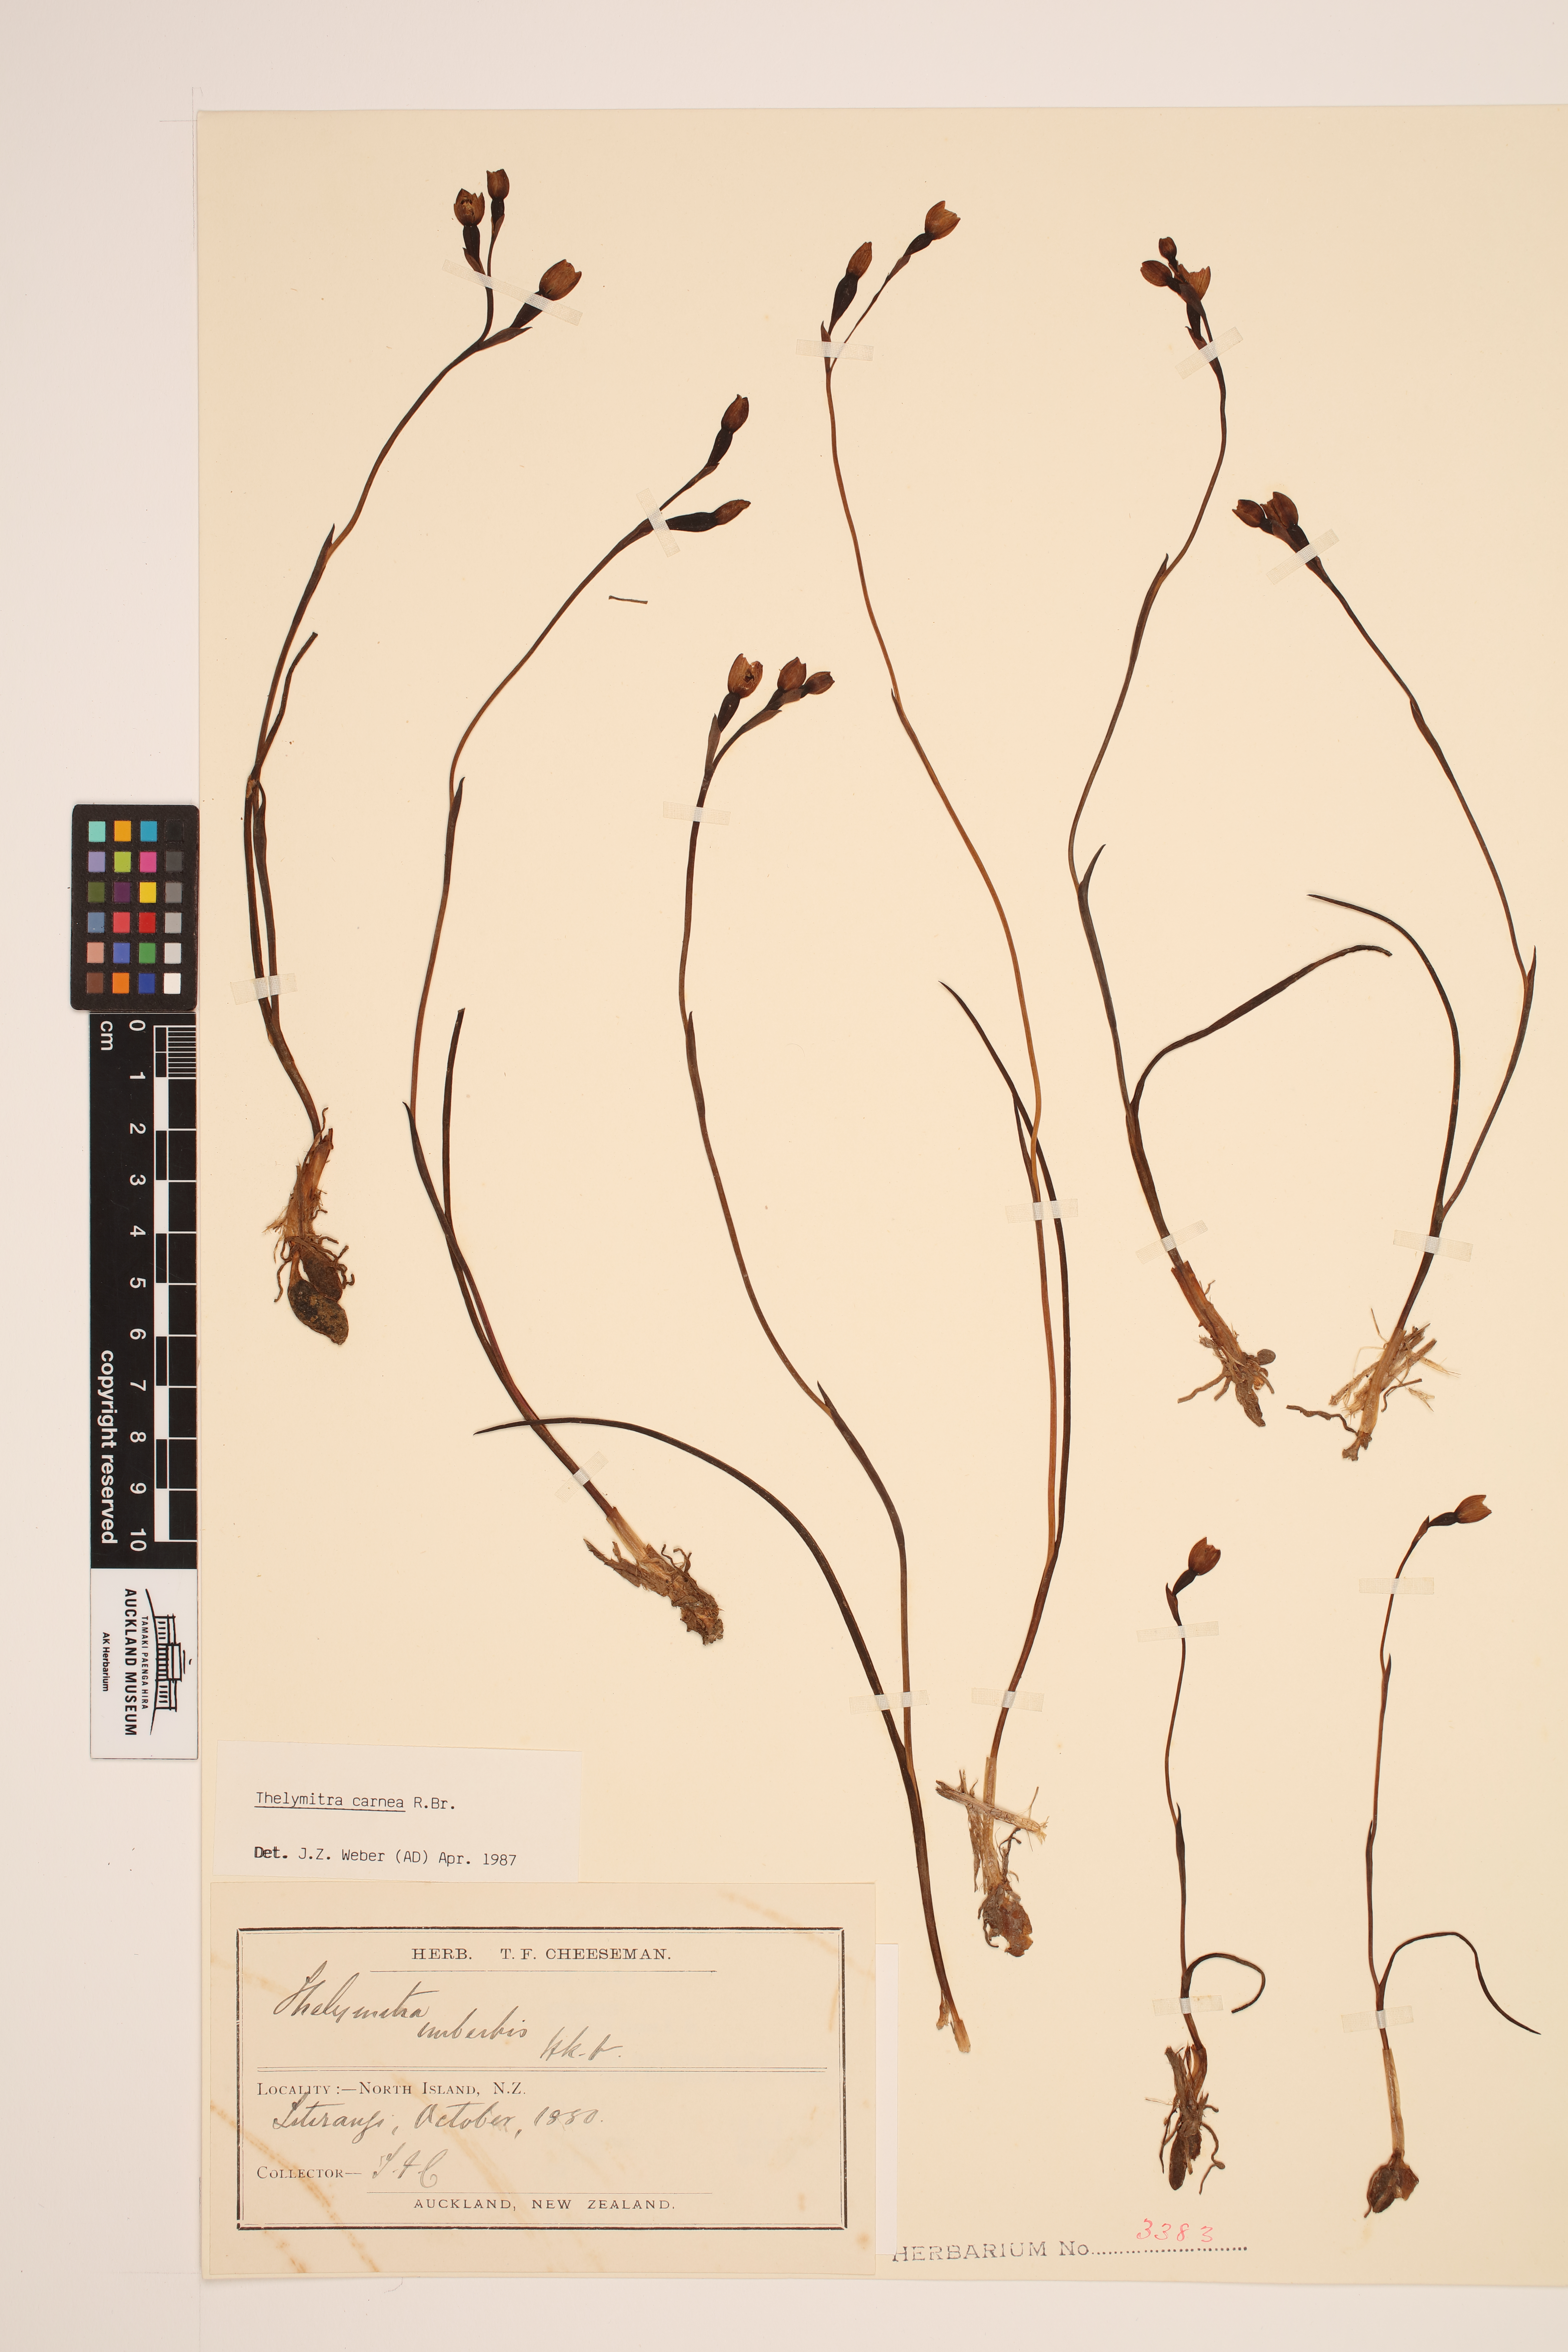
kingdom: Plantae
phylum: Tracheophyta
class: Liliopsida
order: Asparagales
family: Orchidaceae
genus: Thelymitra
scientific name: Thelymitra carnea
